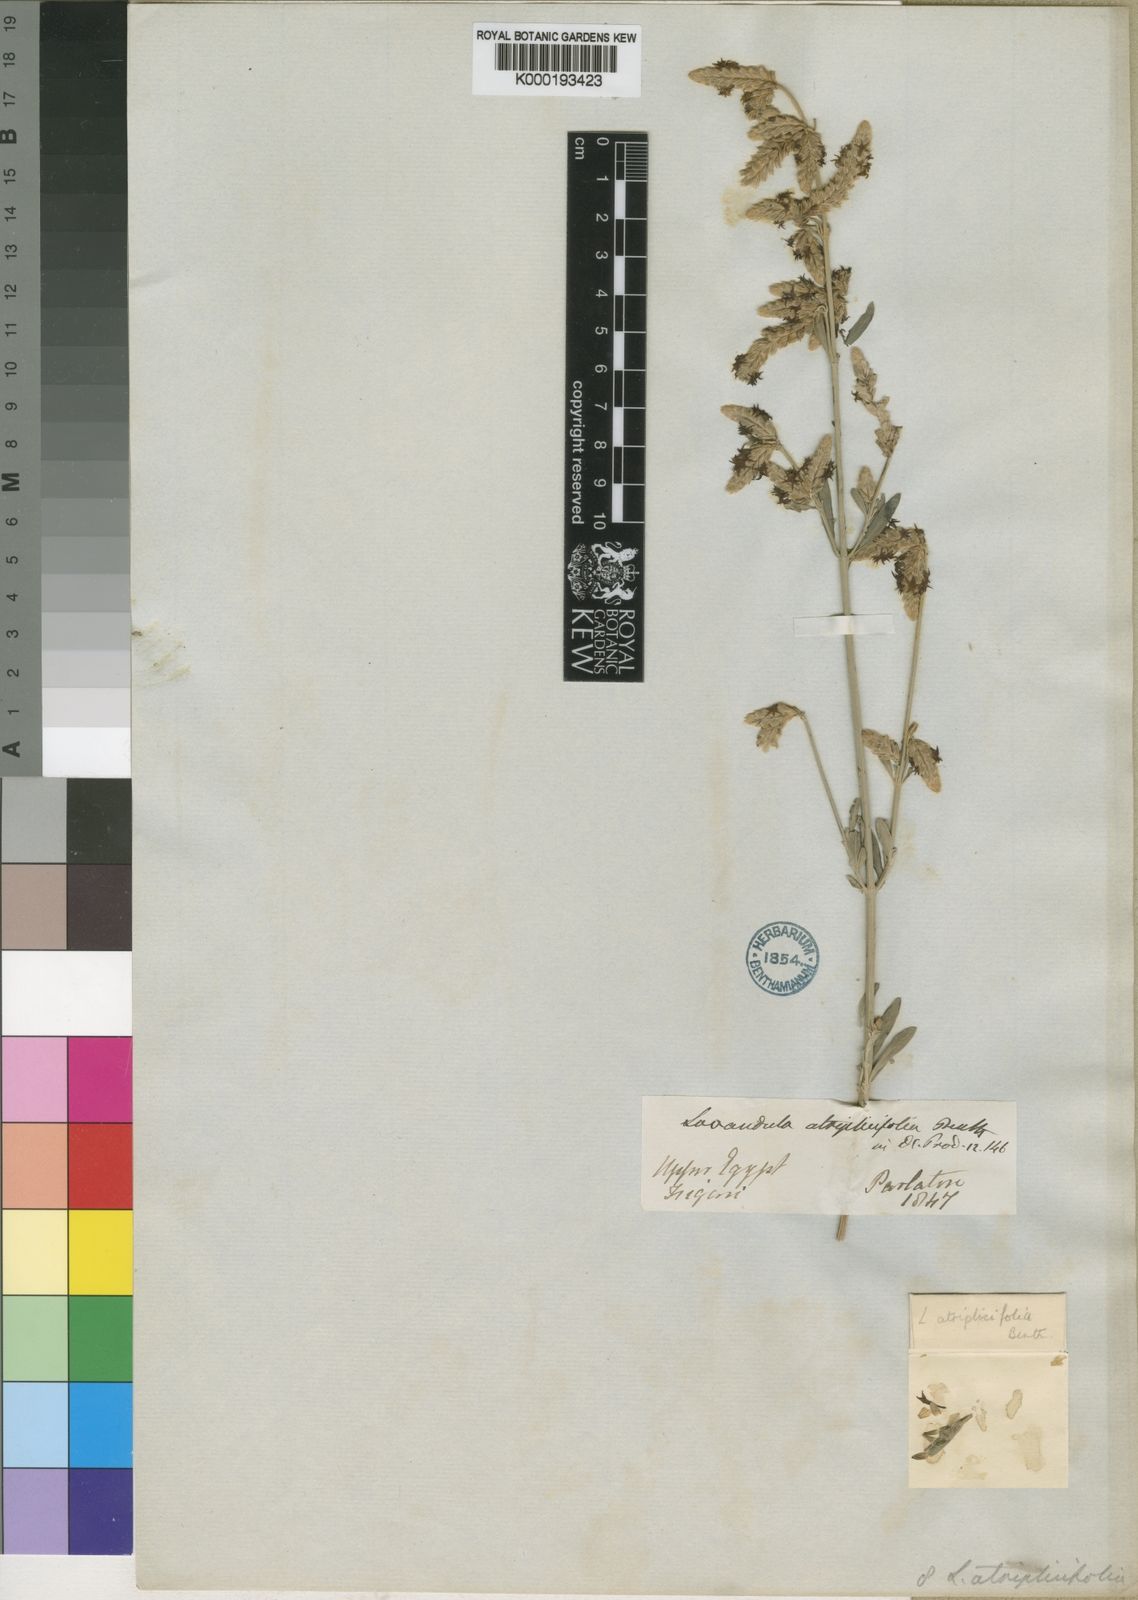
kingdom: Plantae
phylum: Tracheophyta
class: Magnoliopsida
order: Lamiales
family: Lamiaceae
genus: Lavandula
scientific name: Lavandula atriplicifolia
